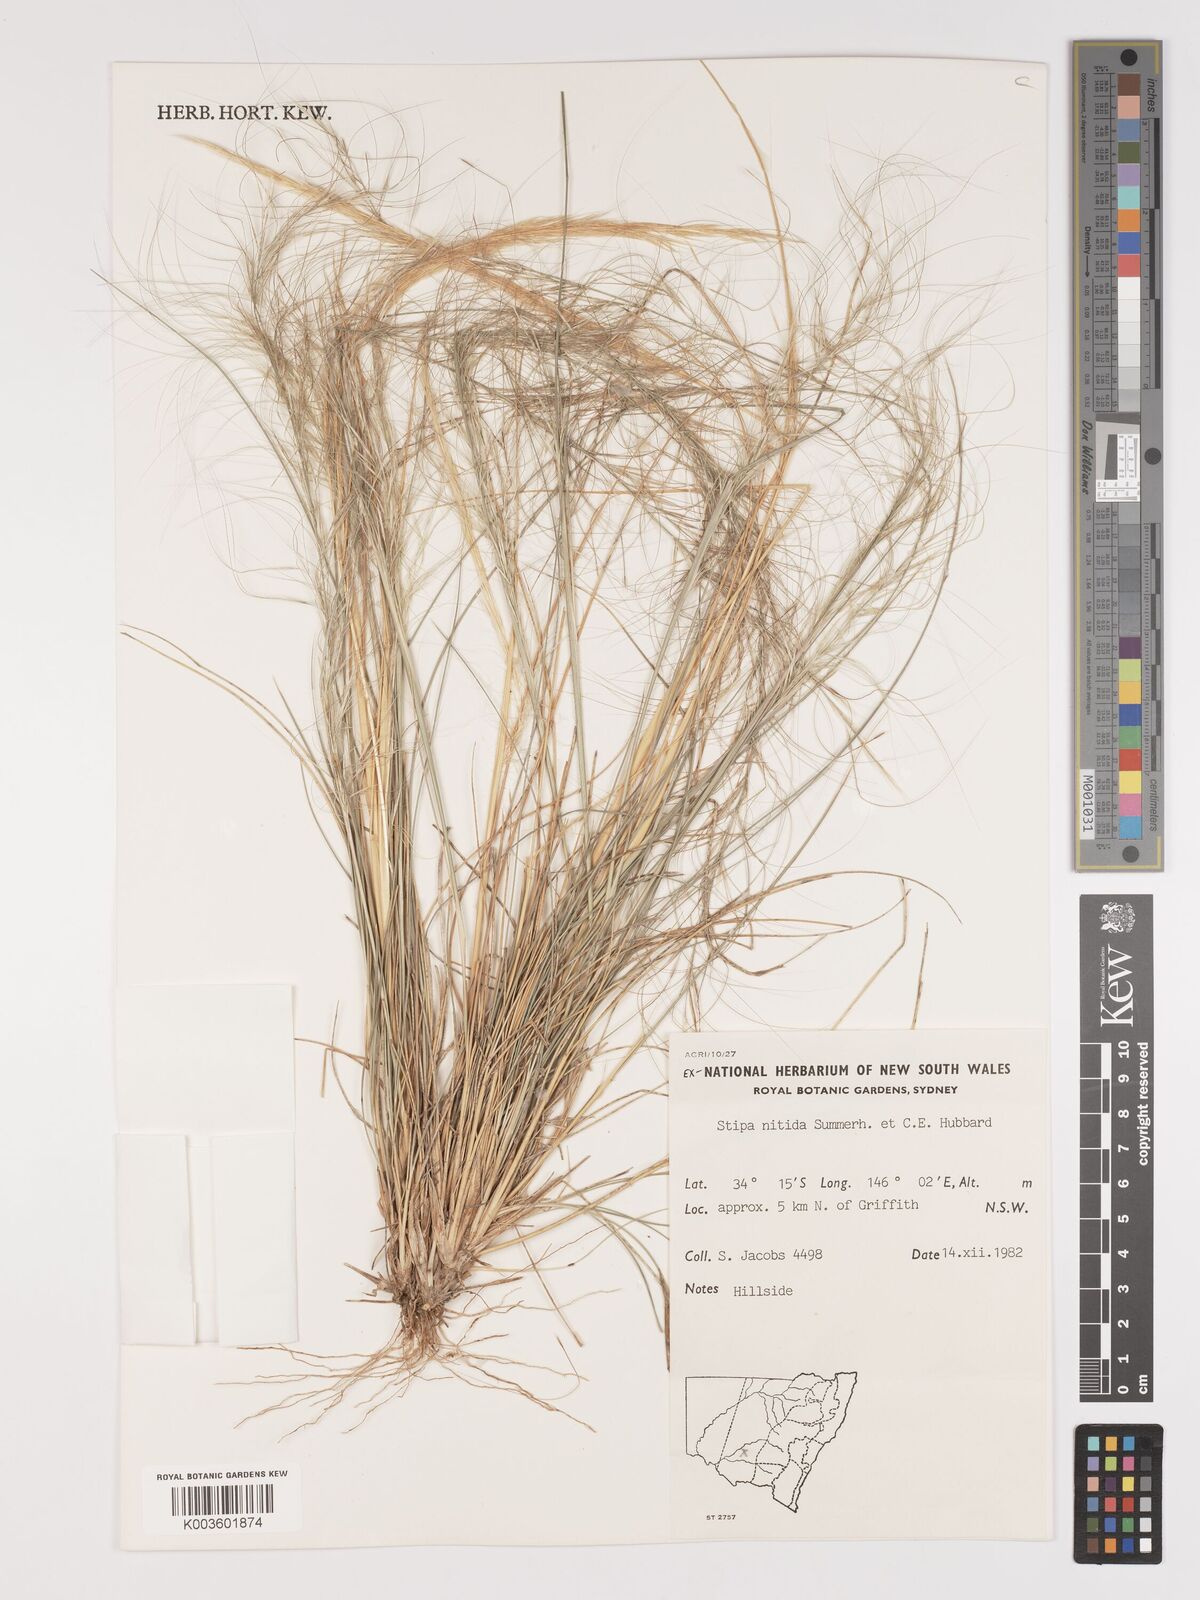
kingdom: Plantae
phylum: Tracheophyta
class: Liliopsida
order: Poales
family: Poaceae
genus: Austrostipa
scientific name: Austrostipa nitida
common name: Balcarra grass
